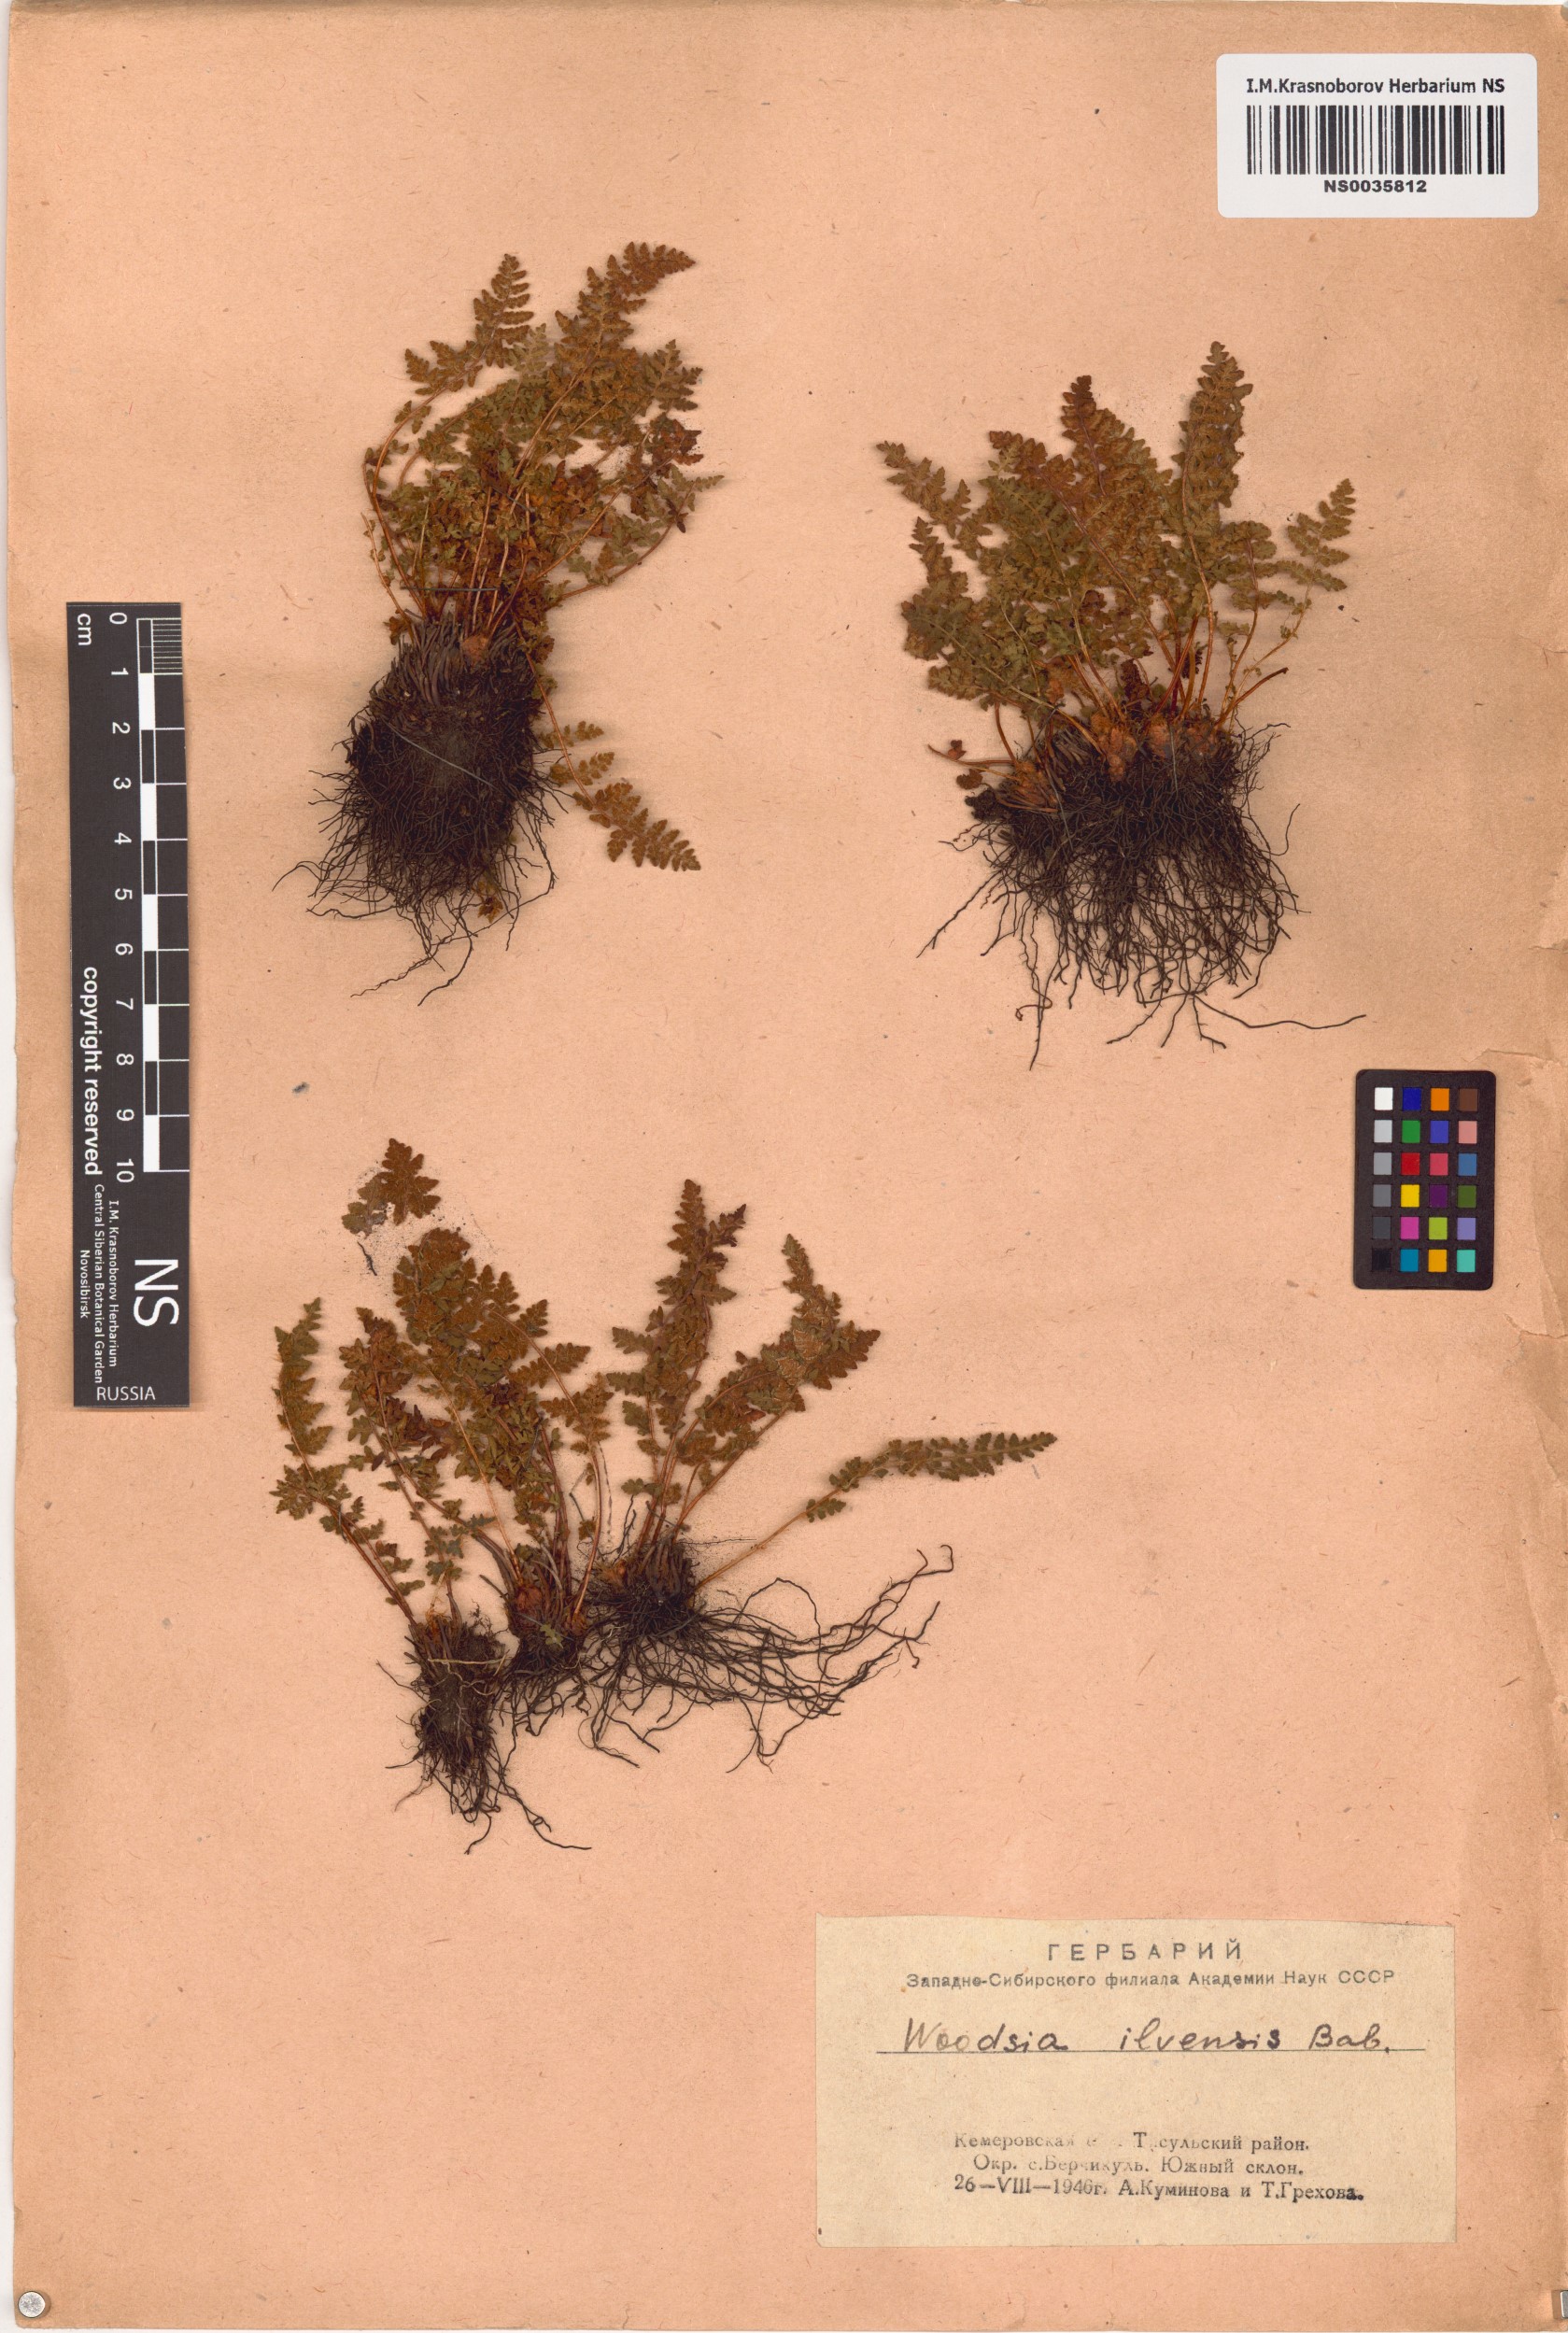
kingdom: Plantae
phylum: Tracheophyta
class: Polypodiopsida
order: Polypodiales
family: Woodsiaceae
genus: Woodsia
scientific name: Woodsia ilvensis
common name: Fragrant woodsia
